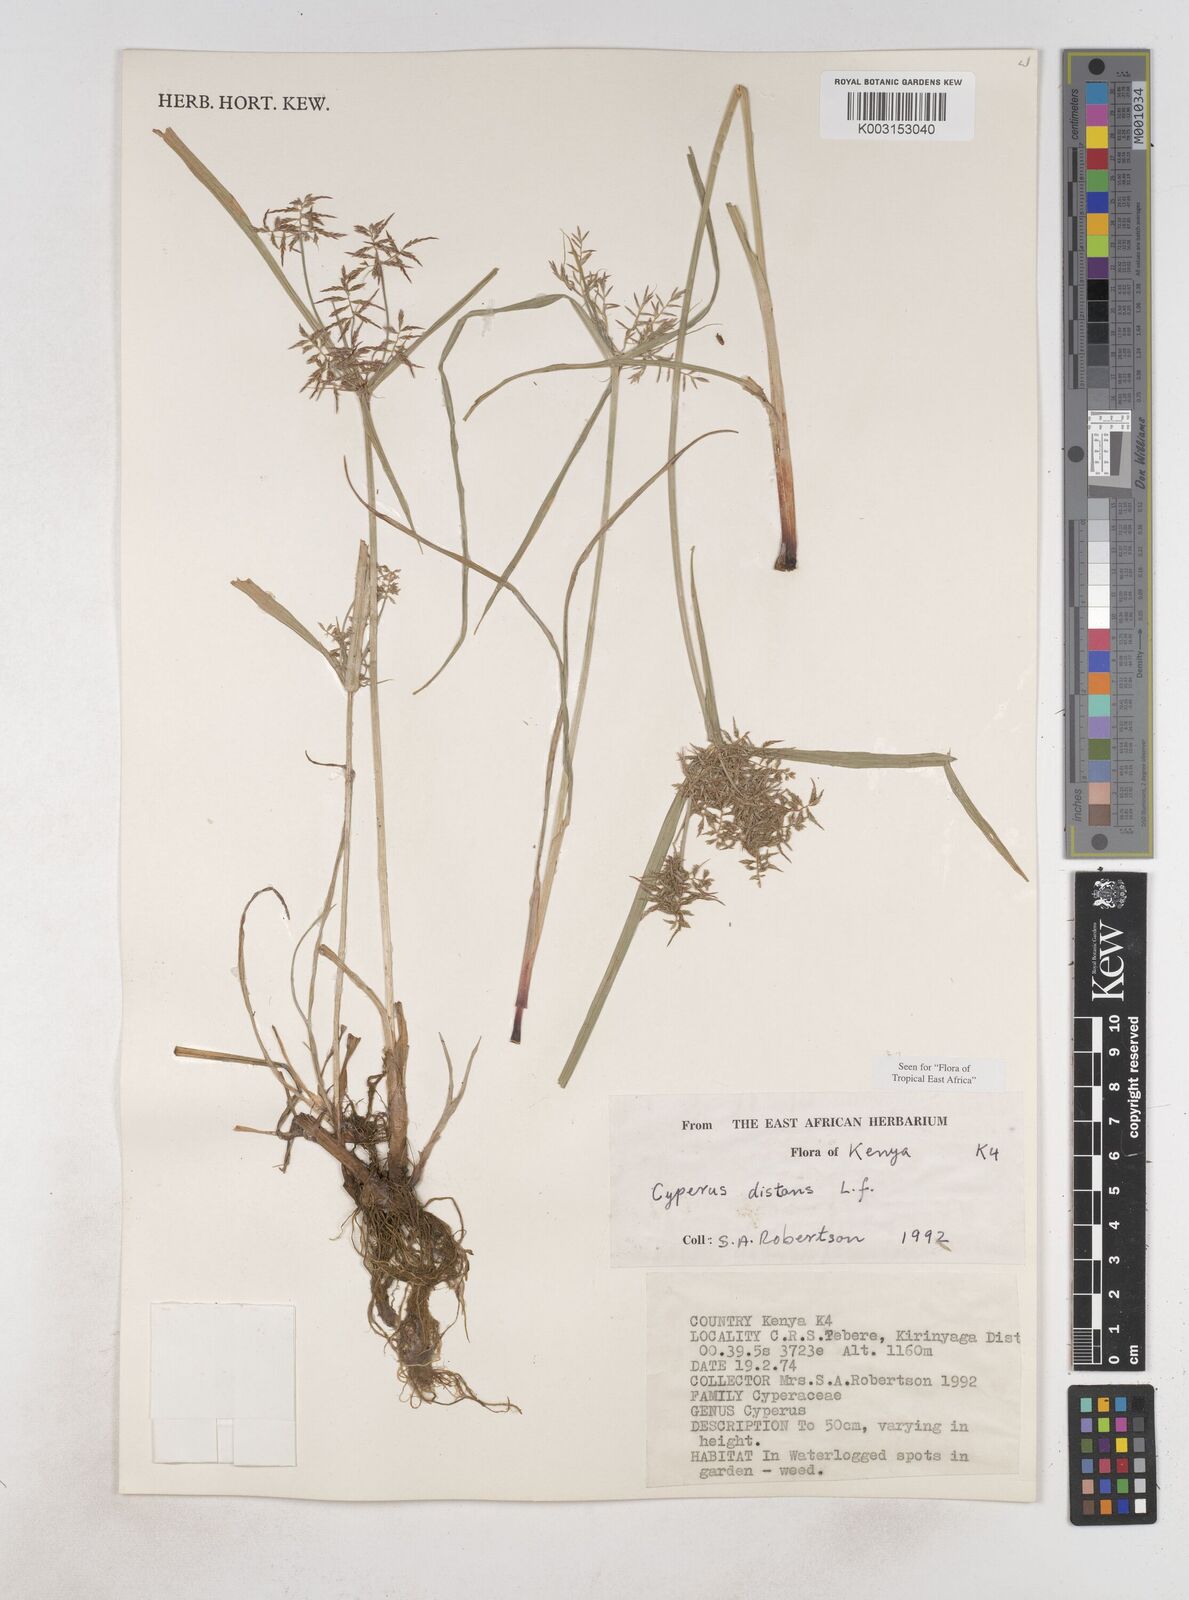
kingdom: Plantae
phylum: Tracheophyta
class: Liliopsida
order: Poales
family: Cyperaceae
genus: Cyperus
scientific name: Cyperus distans
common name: Slender cyperus
